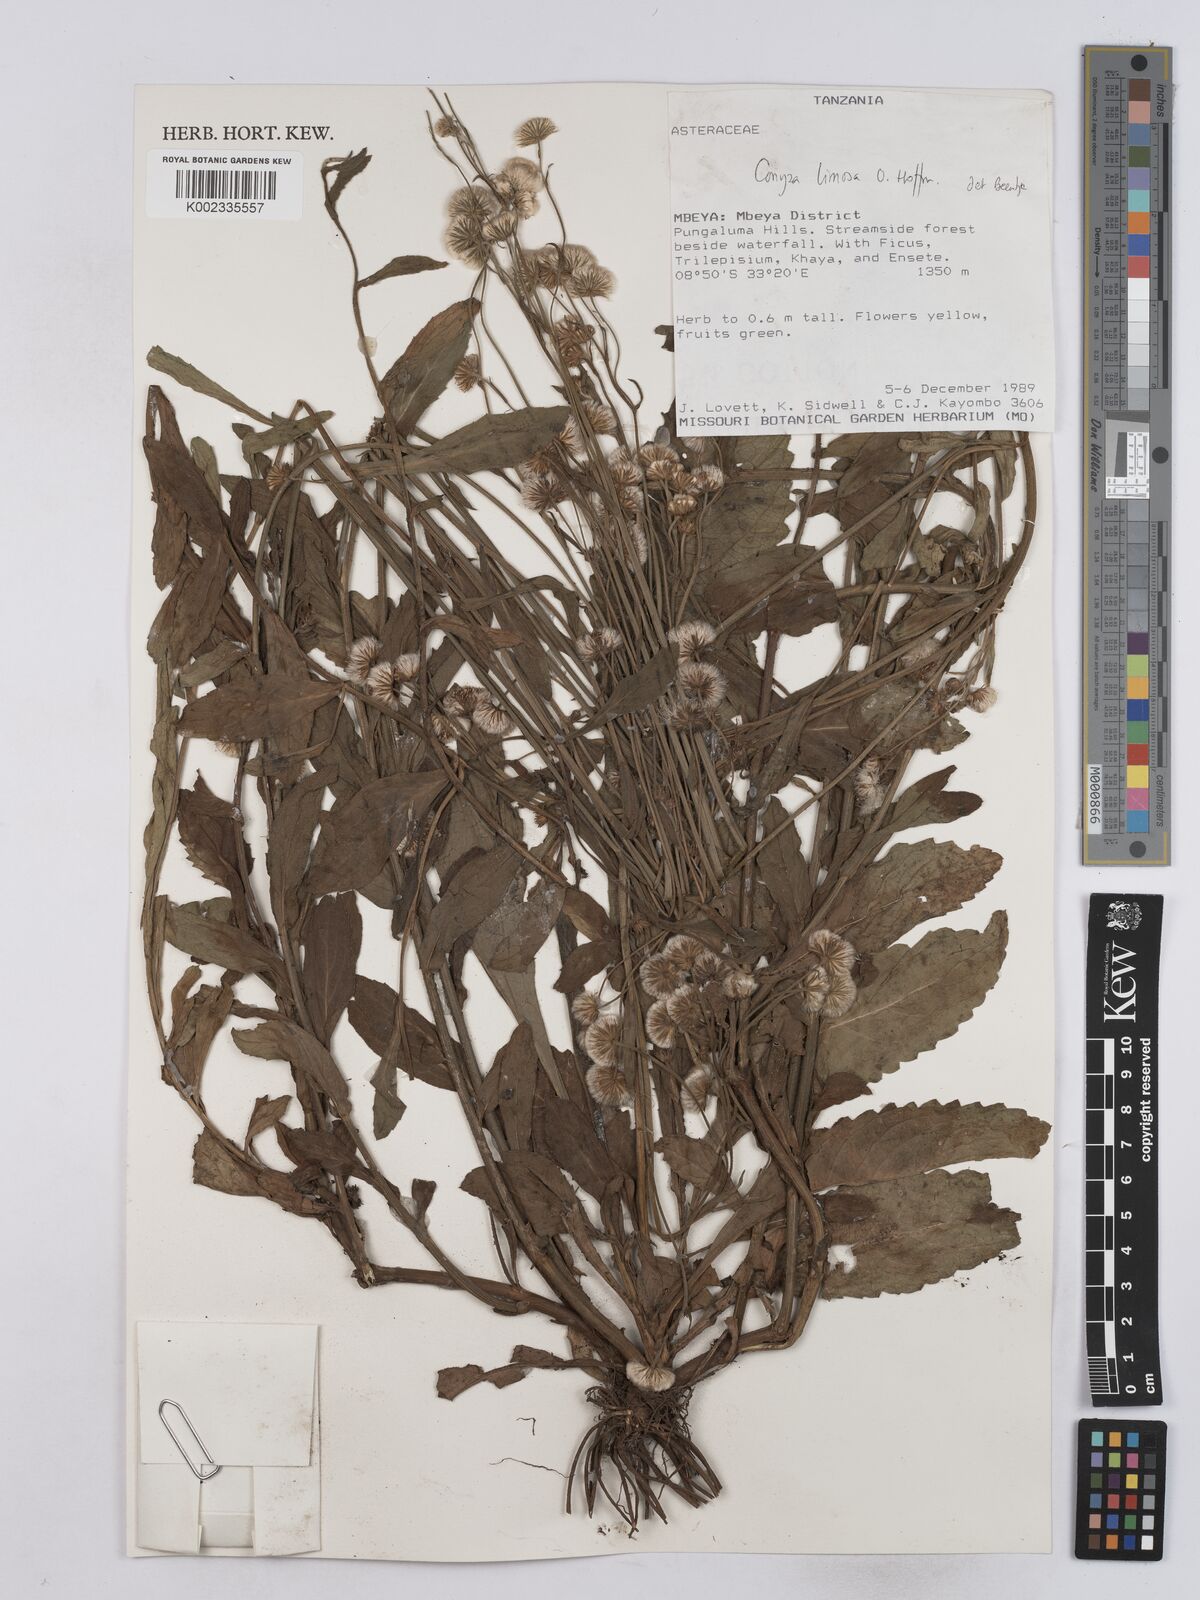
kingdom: Plantae
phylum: Tracheophyta
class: Magnoliopsida
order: Asterales
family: Asteraceae
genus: Conyza
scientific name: Conyza limosa
